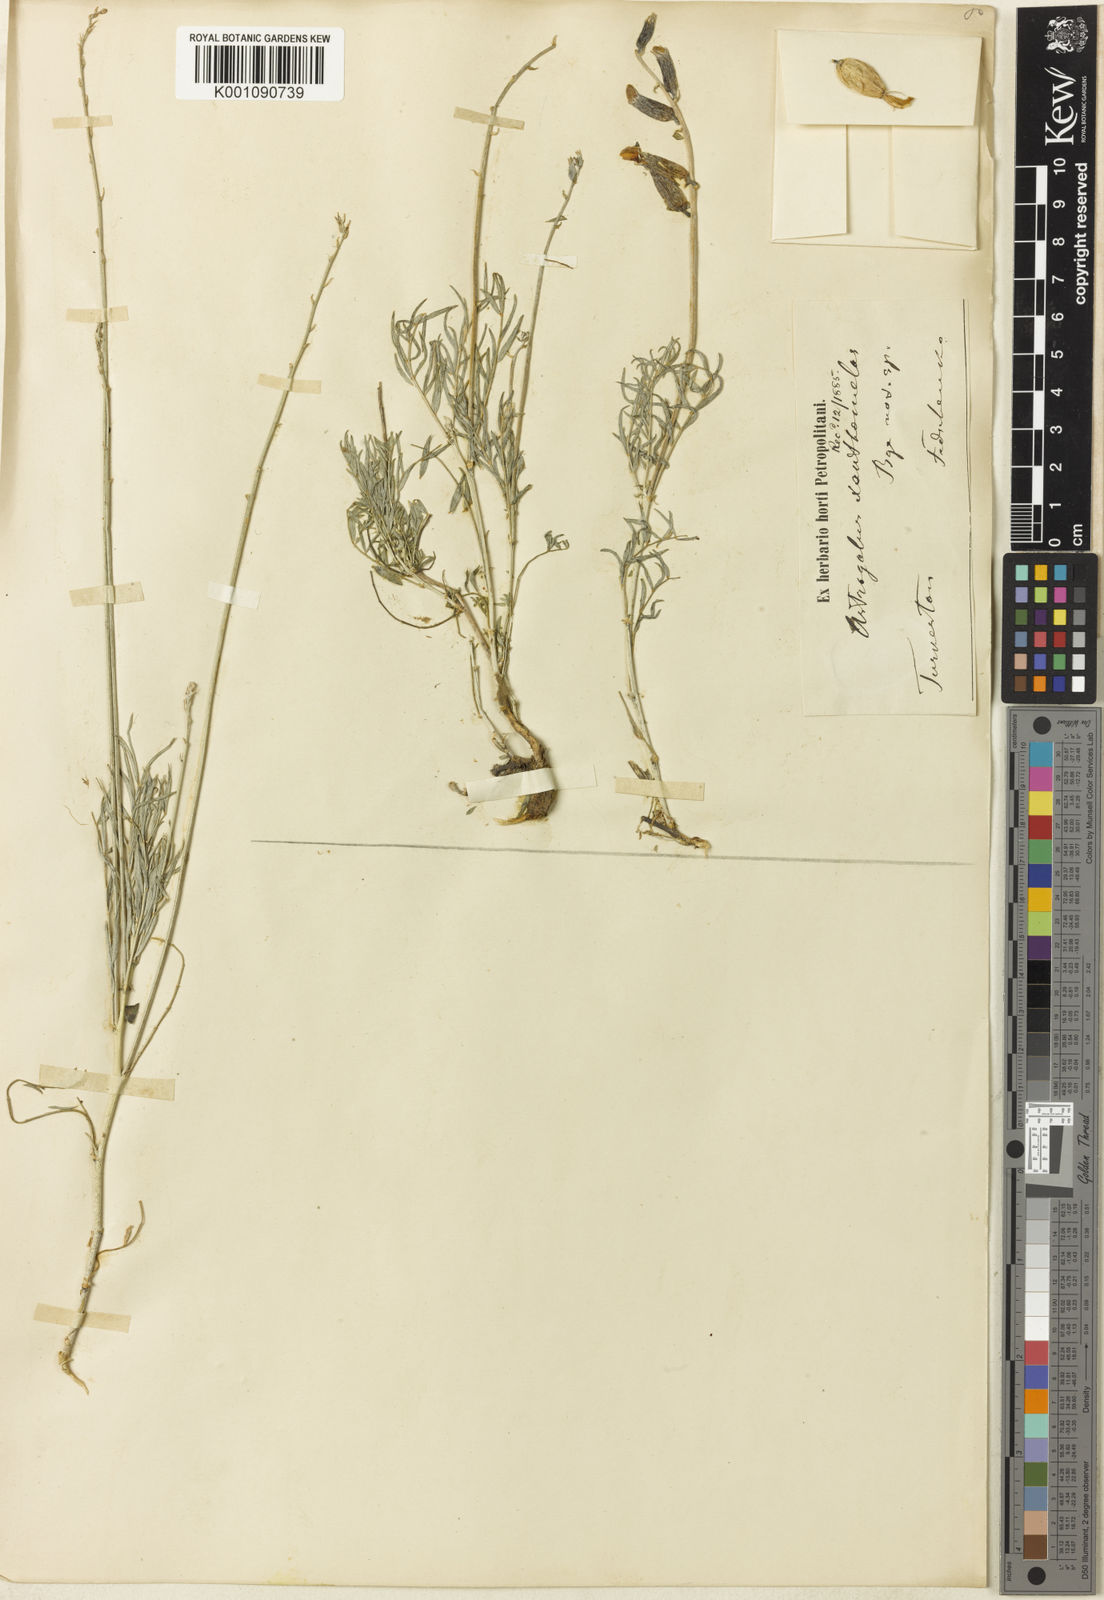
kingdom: Plantae
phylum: Tracheophyta
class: Magnoliopsida
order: Fabales
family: Fabaceae
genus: Astragalus
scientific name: Astragalus
